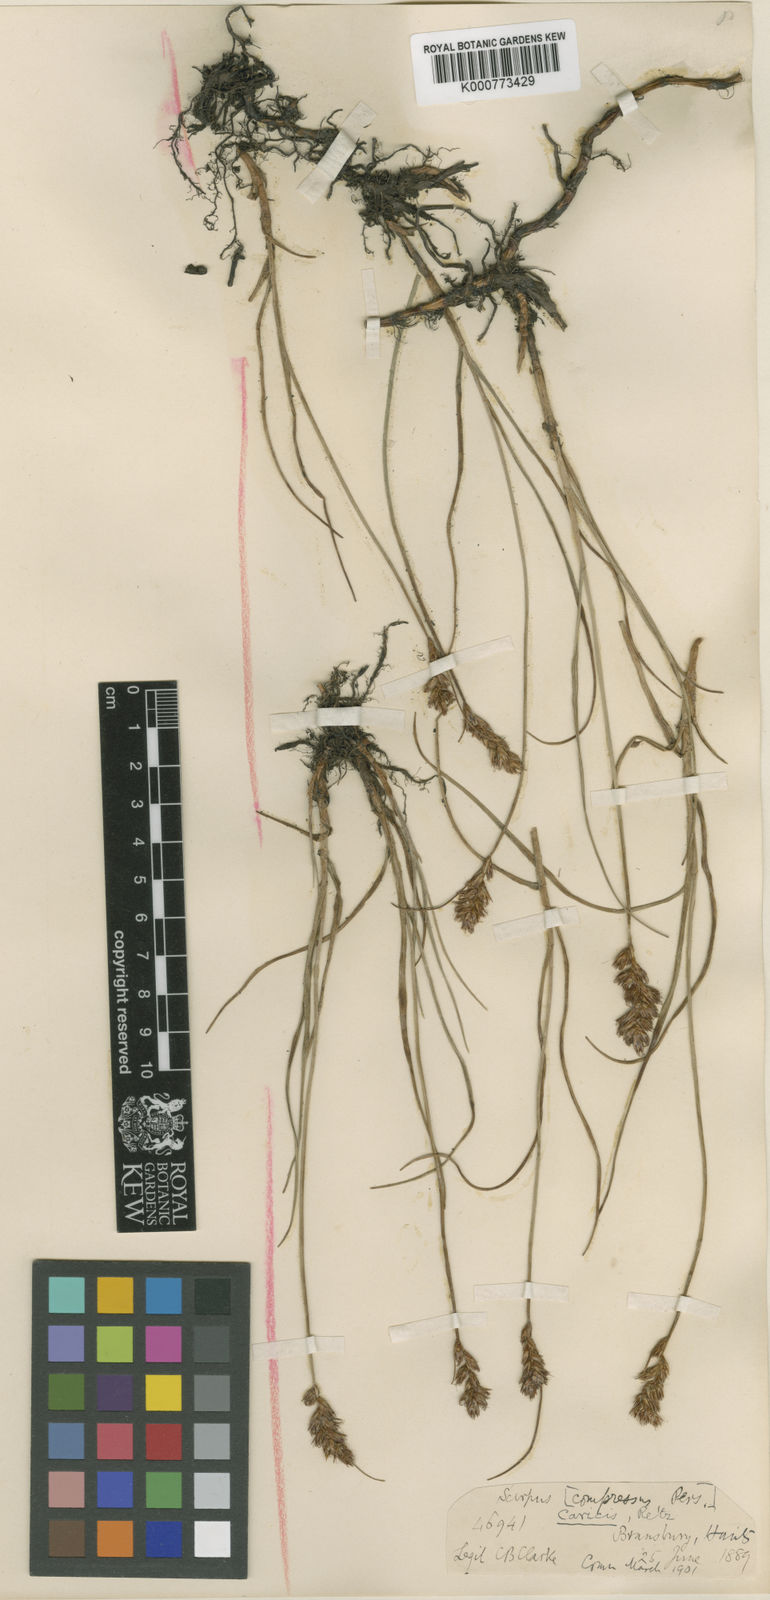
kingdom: Plantae
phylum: Tracheophyta
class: Liliopsida
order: Poales
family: Cyperaceae
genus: Blysmus
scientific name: Blysmus compressus
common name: Flat-sedge
